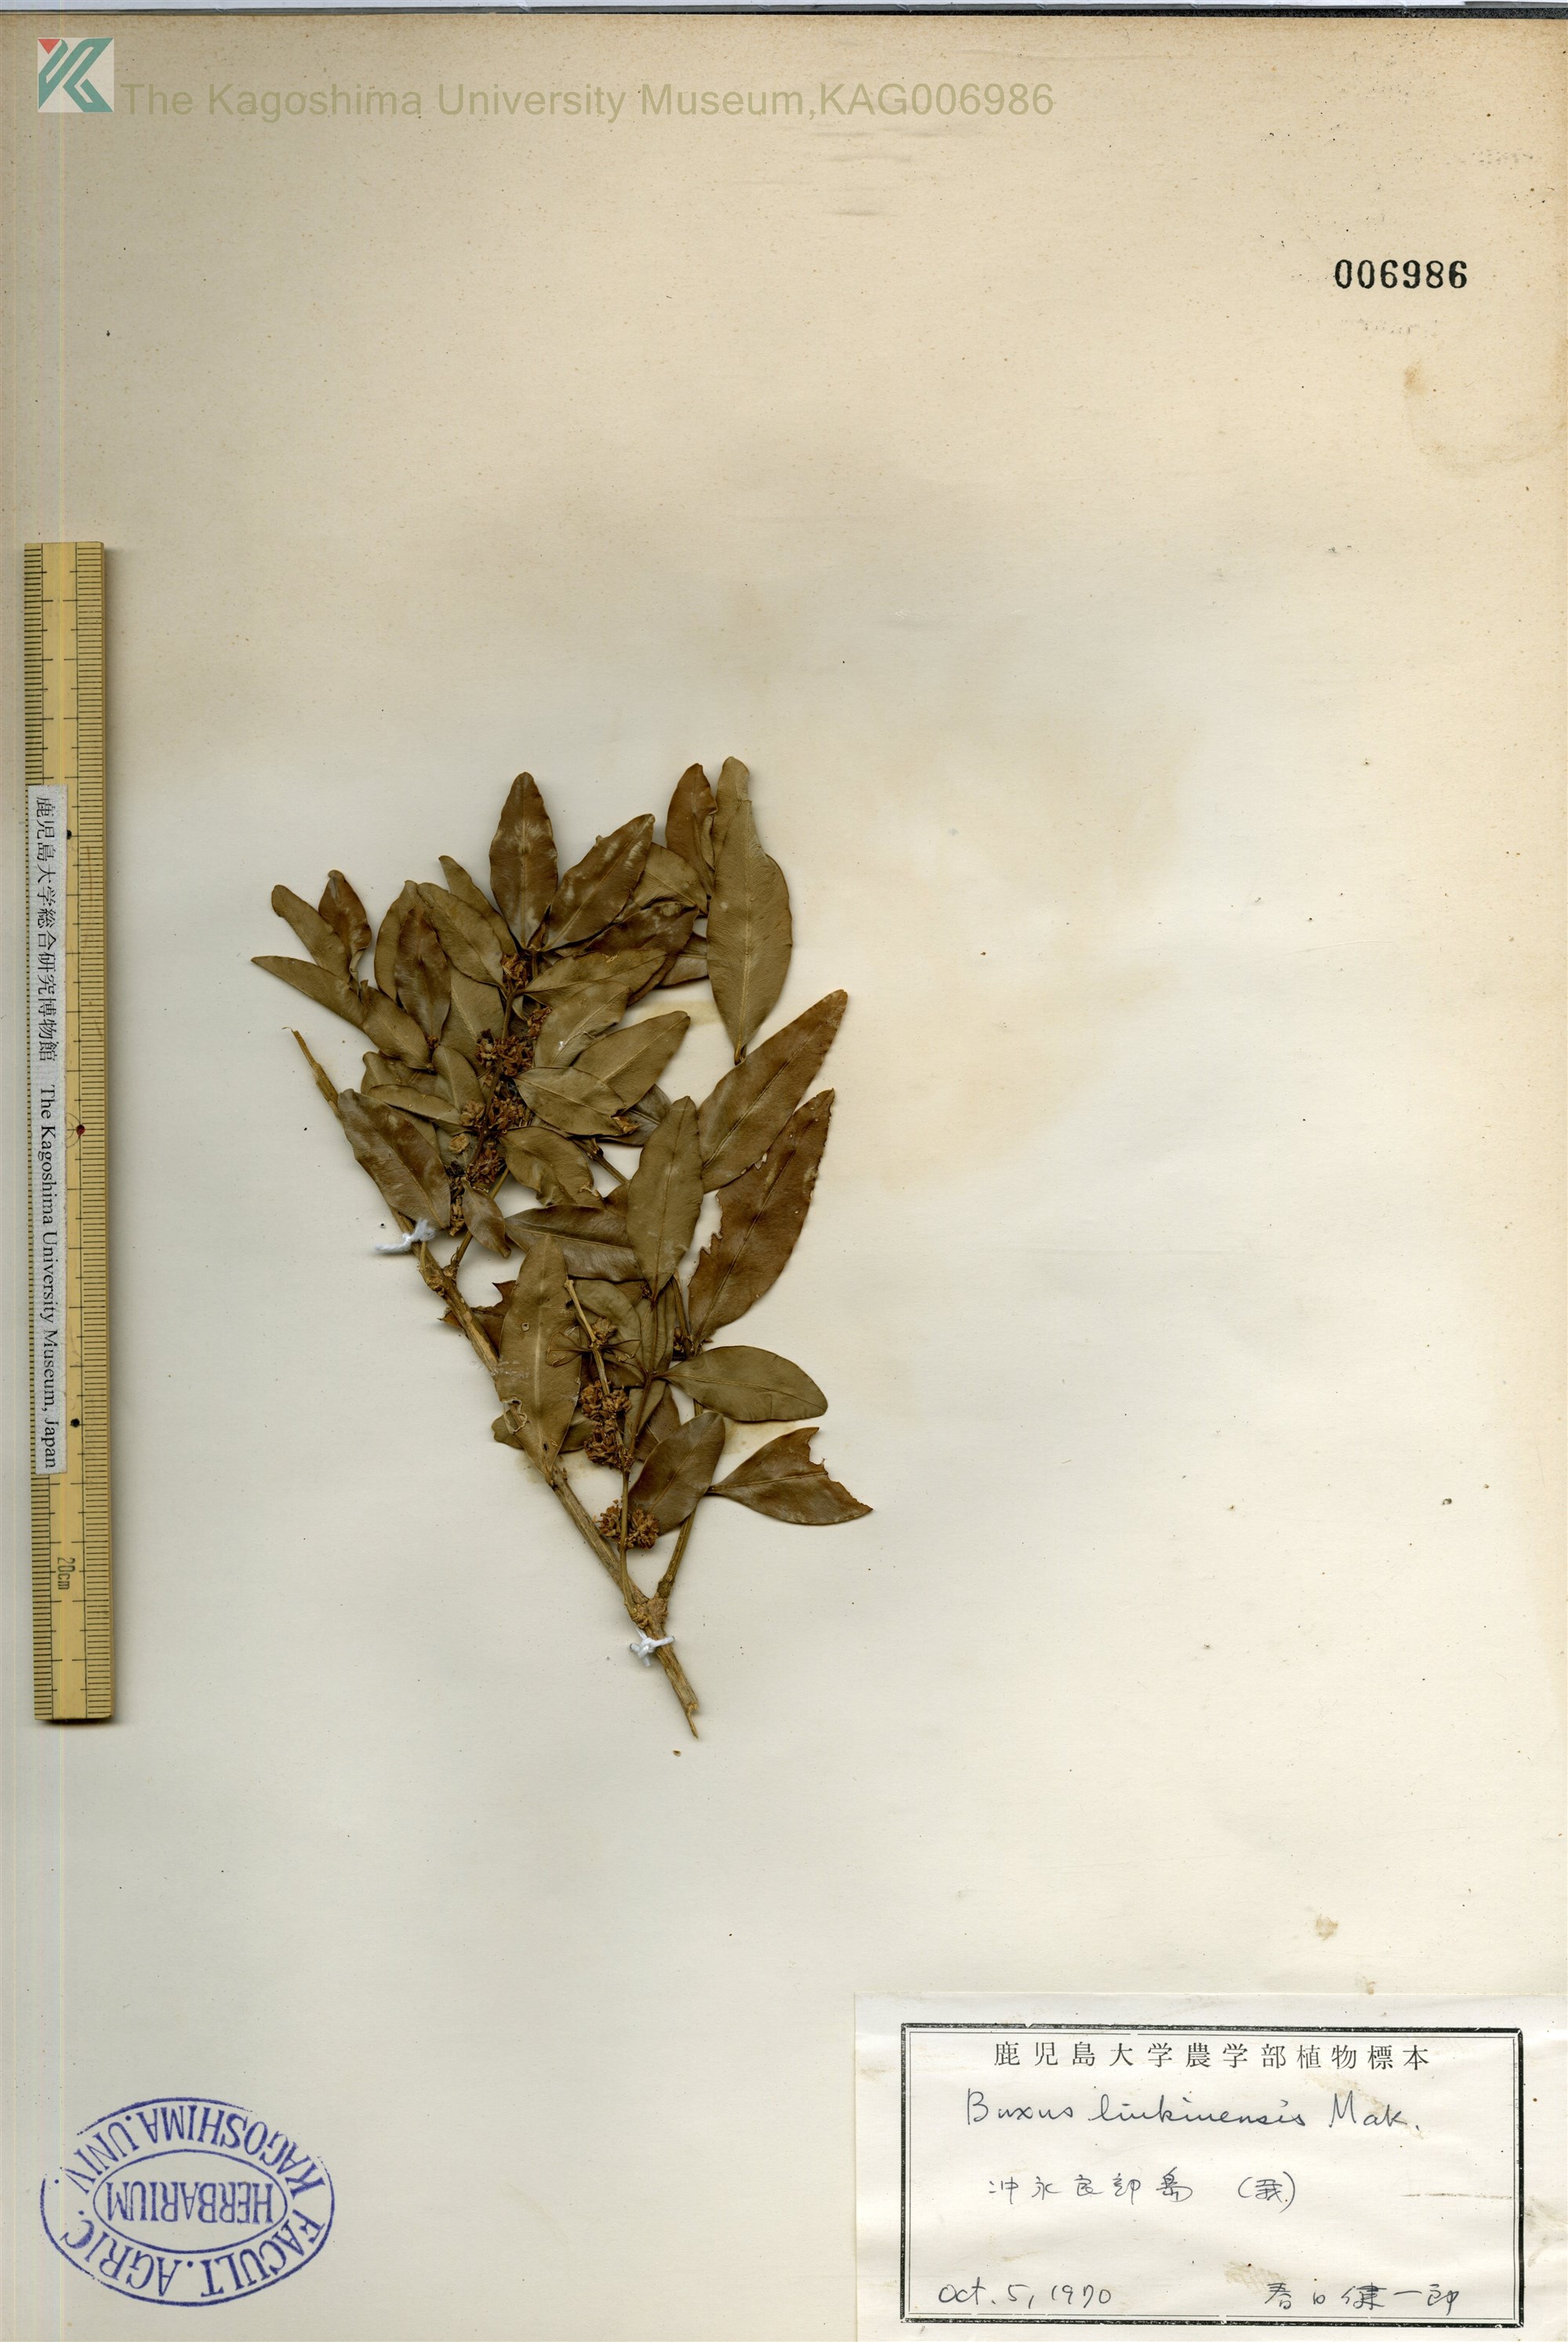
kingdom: Plantae
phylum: Tracheophyta
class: Magnoliopsida
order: Buxales
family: Buxaceae
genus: Buxus
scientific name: Buxus liukiuensis
